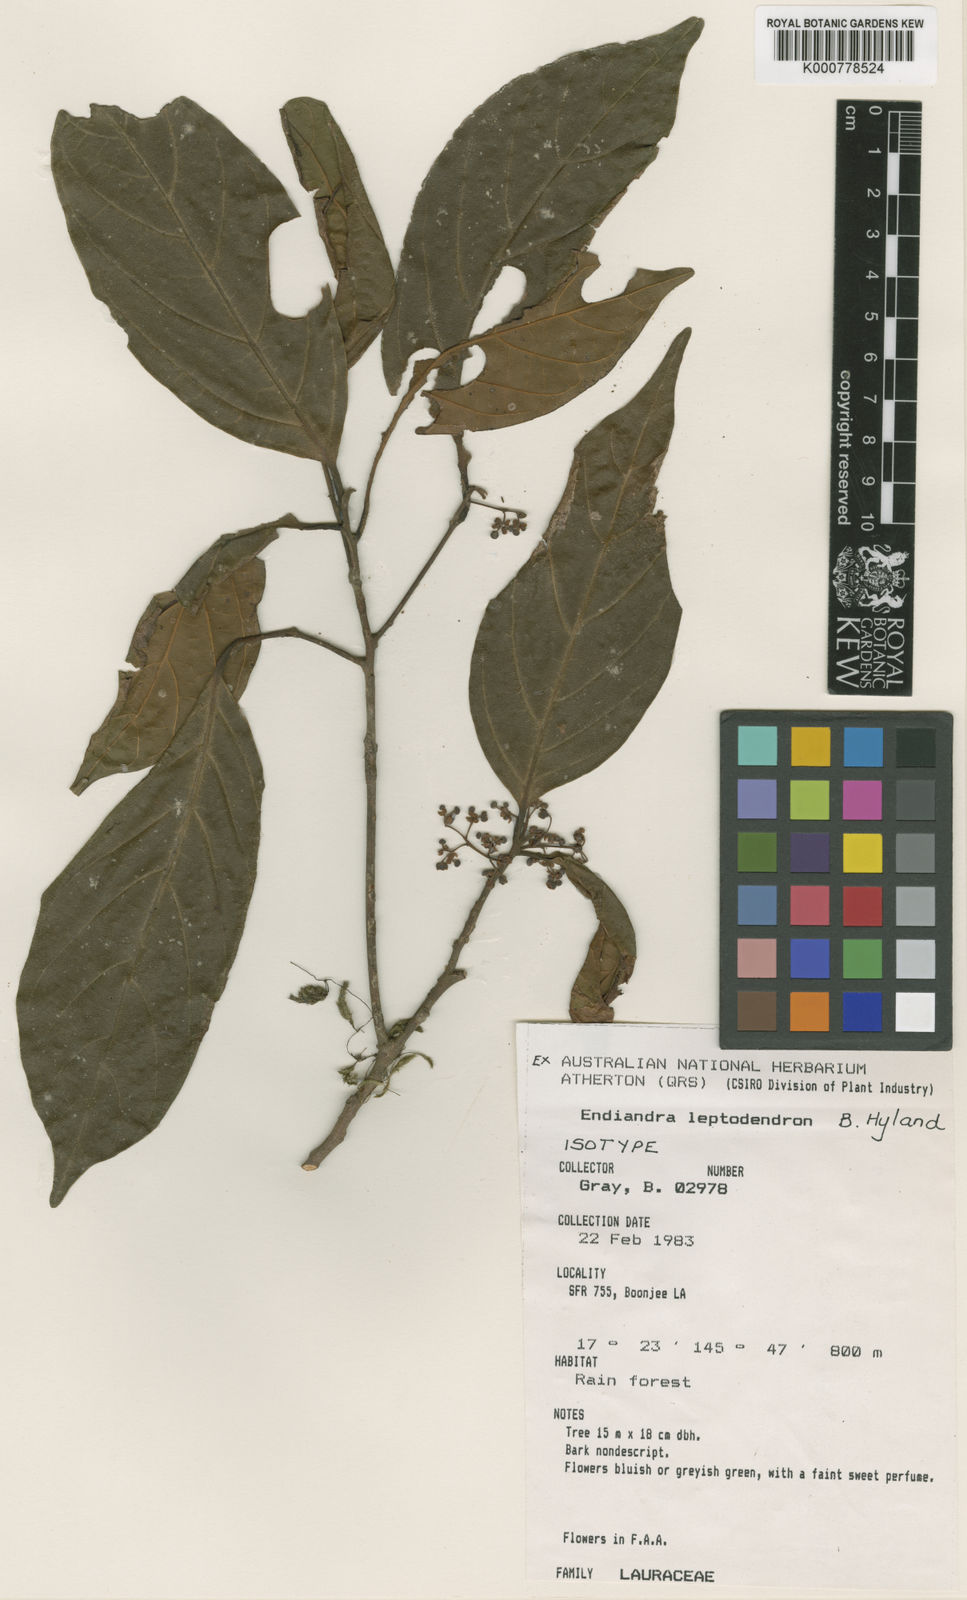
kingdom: Plantae
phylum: Tracheophyta
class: Magnoliopsida
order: Laurales
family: Lauraceae
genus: Endiandra
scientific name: Endiandra leptodendron
